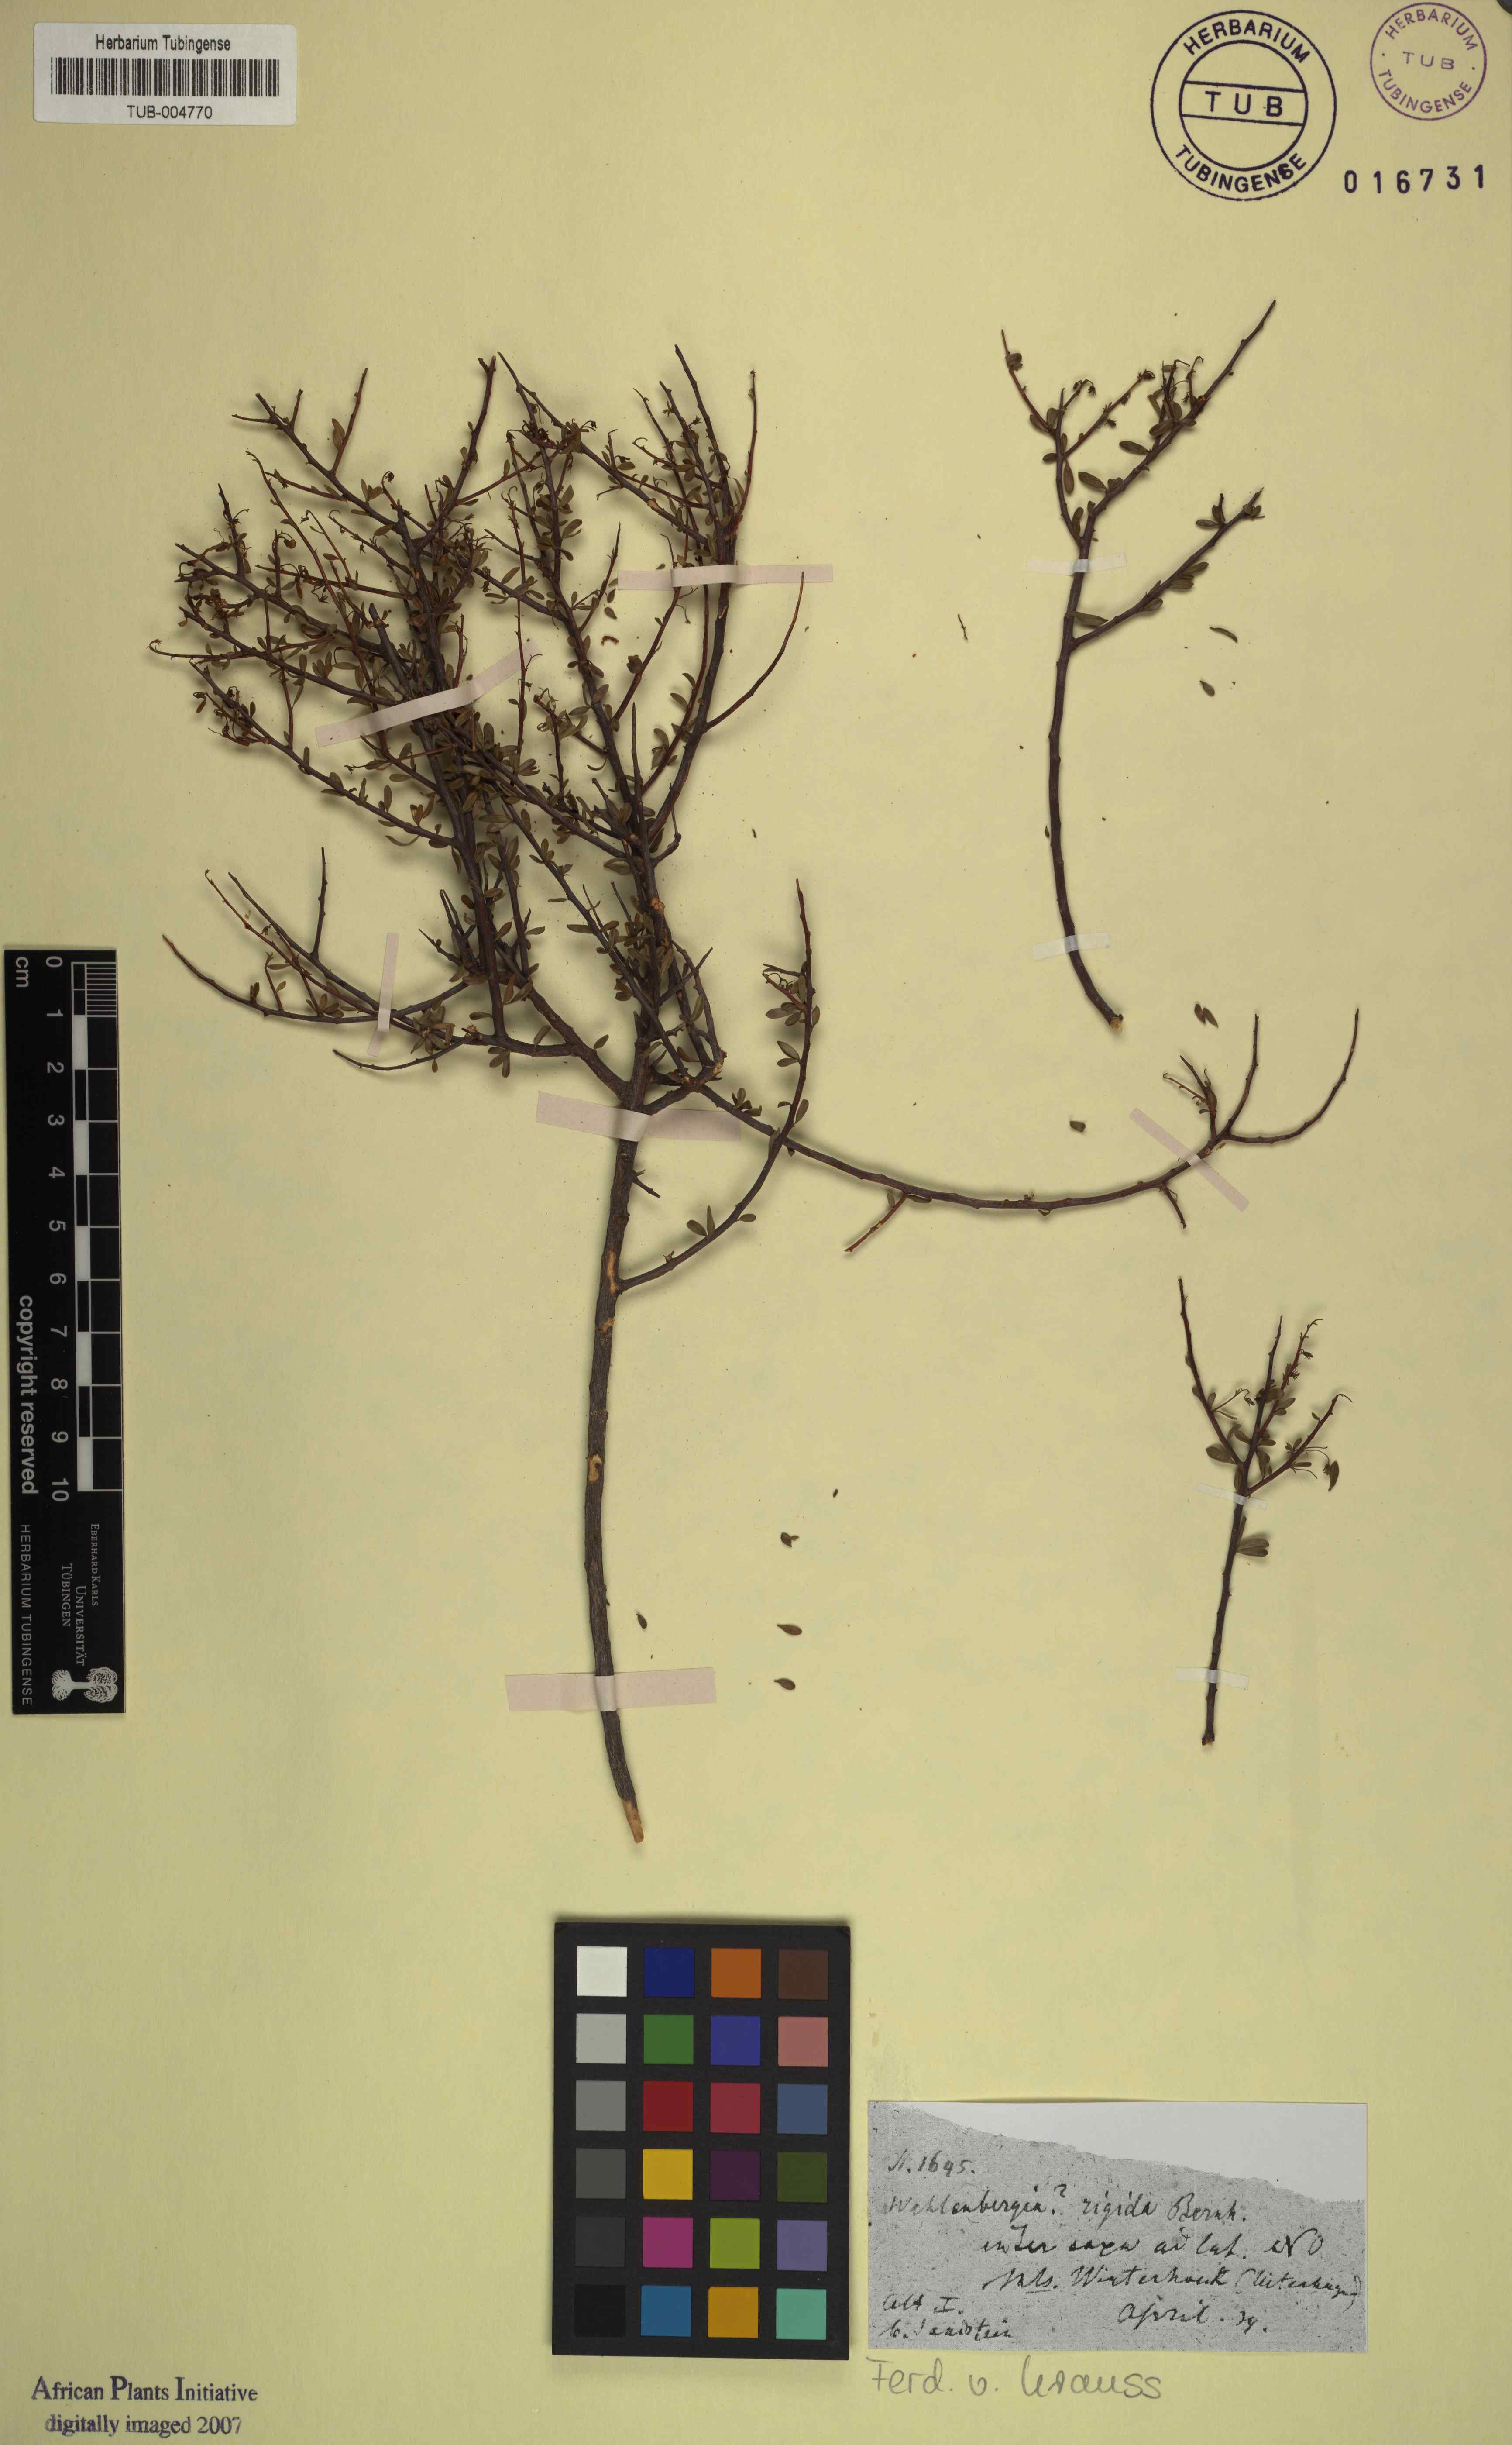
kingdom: Plantae
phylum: Tracheophyta
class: Magnoliopsida
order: Asterales
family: Campanulaceae
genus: Theilera
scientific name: Theilera robusta
